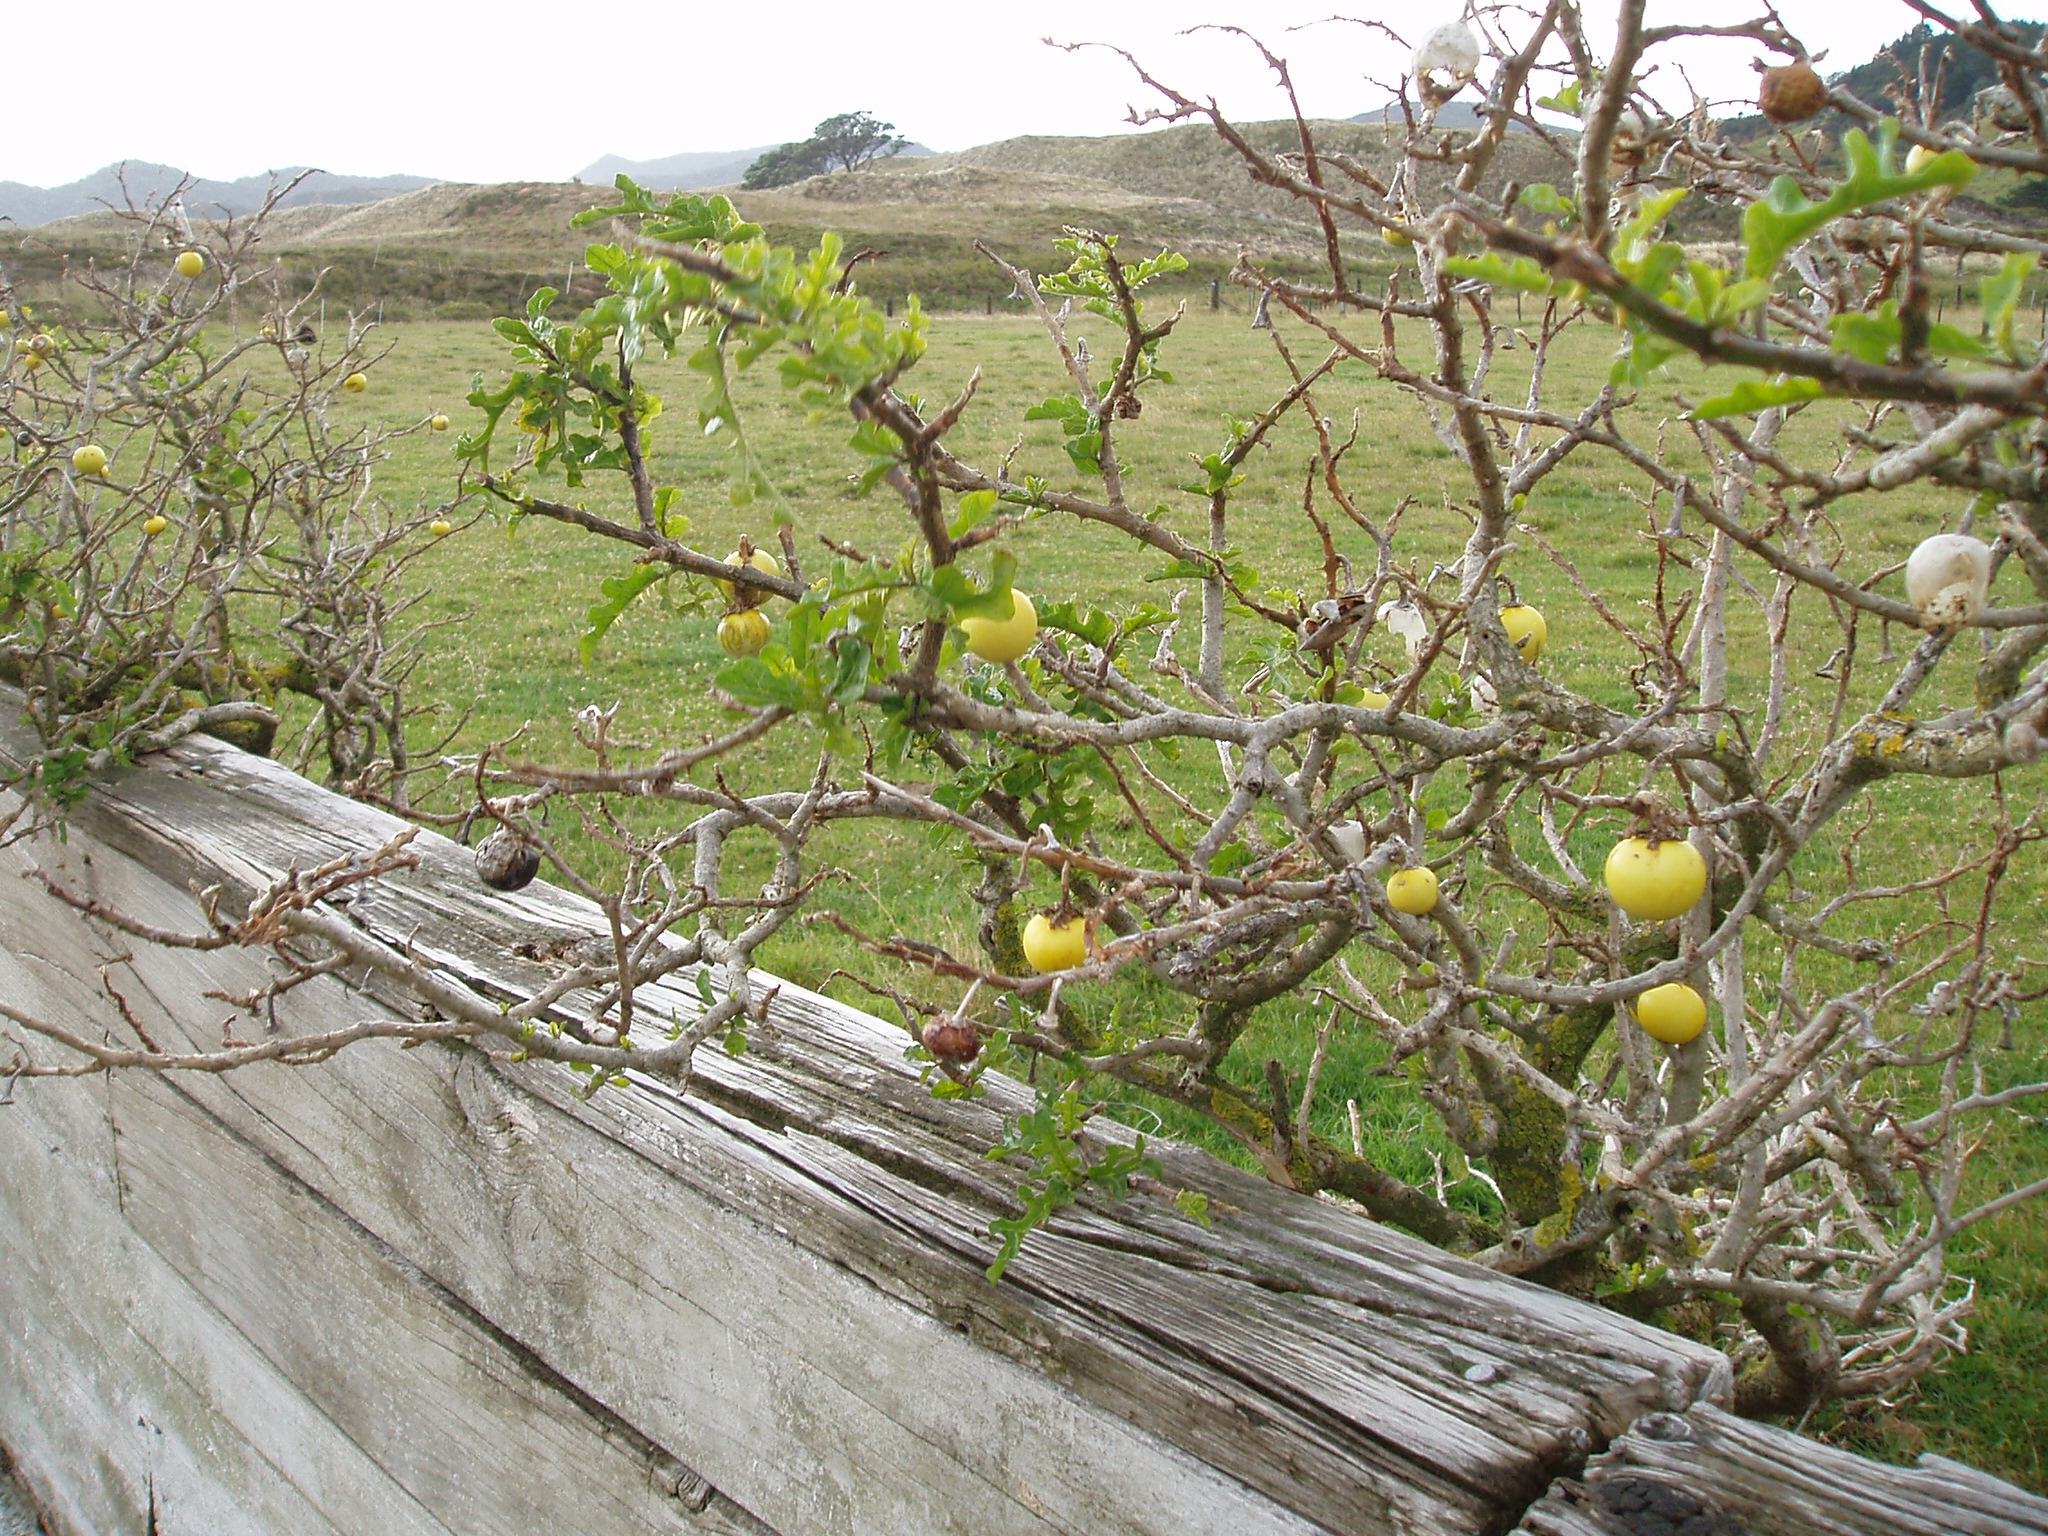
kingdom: Plantae
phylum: Tracheophyta
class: Magnoliopsida
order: Solanales
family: Solanaceae
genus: Solanum
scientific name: Solanum linnaeanum
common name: Nightshade
